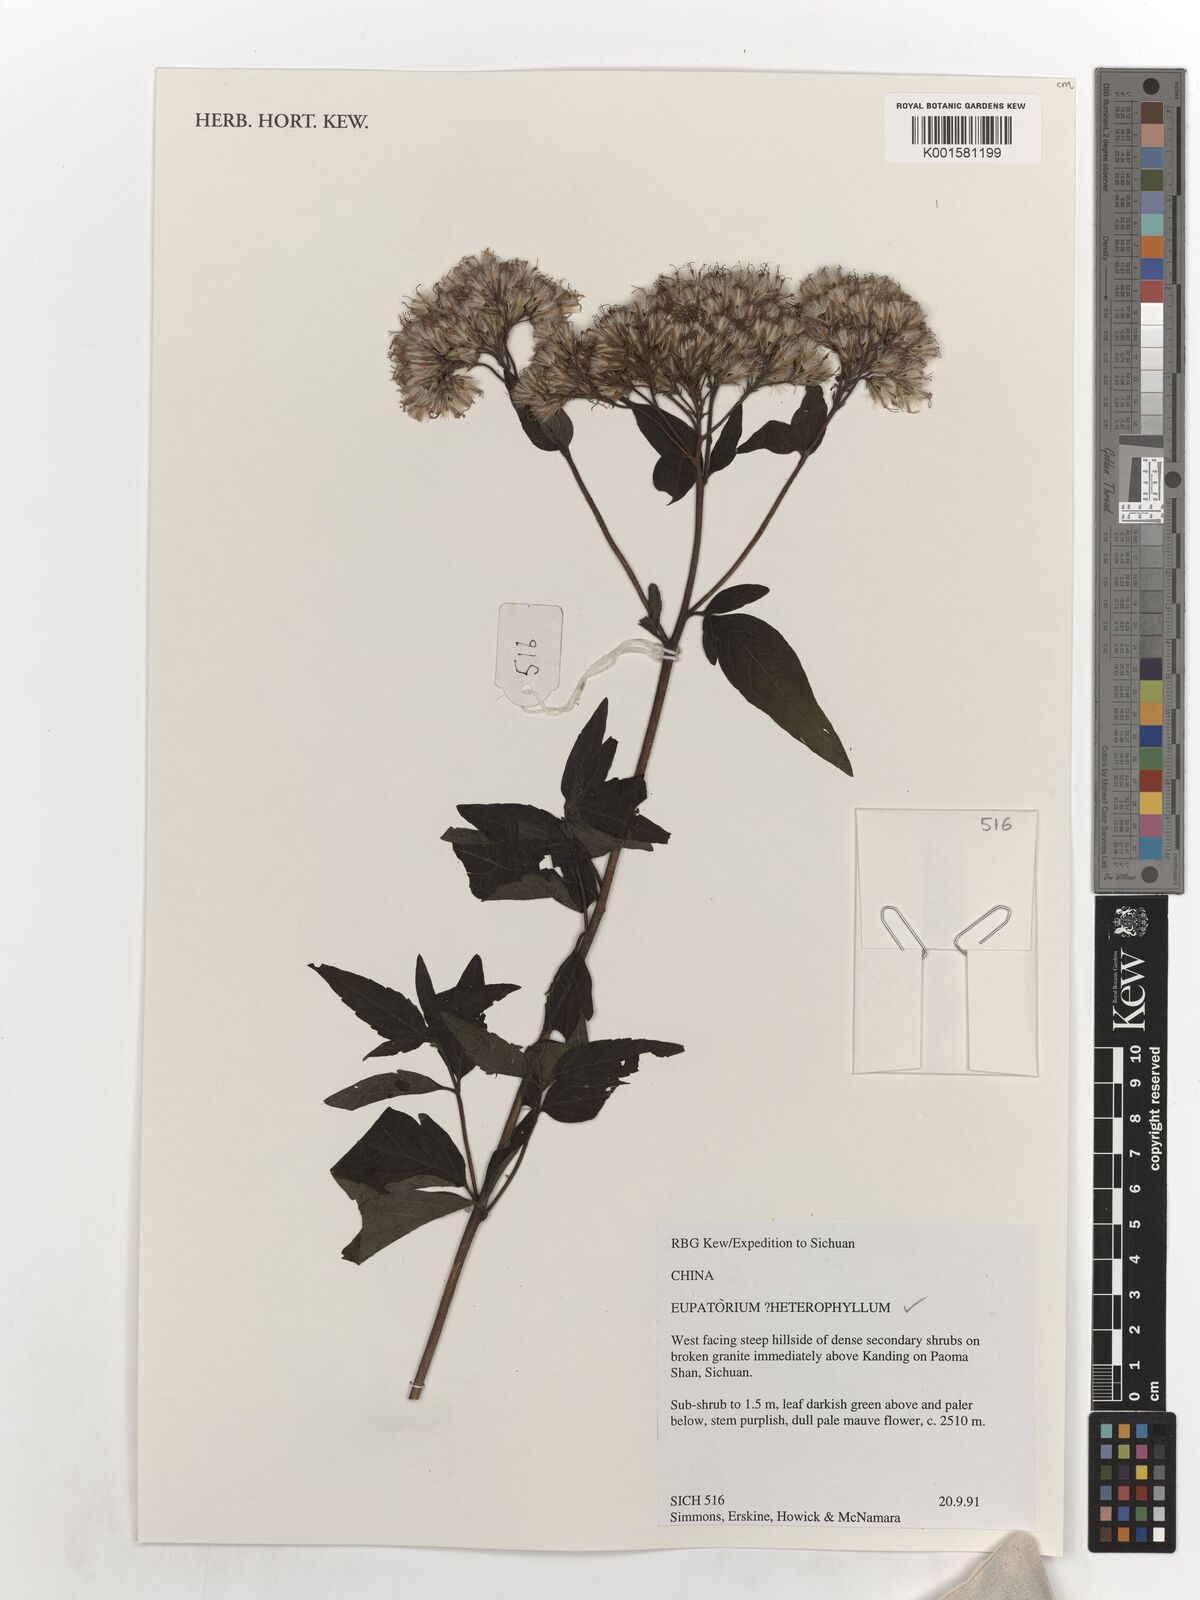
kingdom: Plantae
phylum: Tracheophyta
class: Magnoliopsida
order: Asterales
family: Asteraceae
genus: Grisebachianthus
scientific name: Grisebachianthus plucheoides
